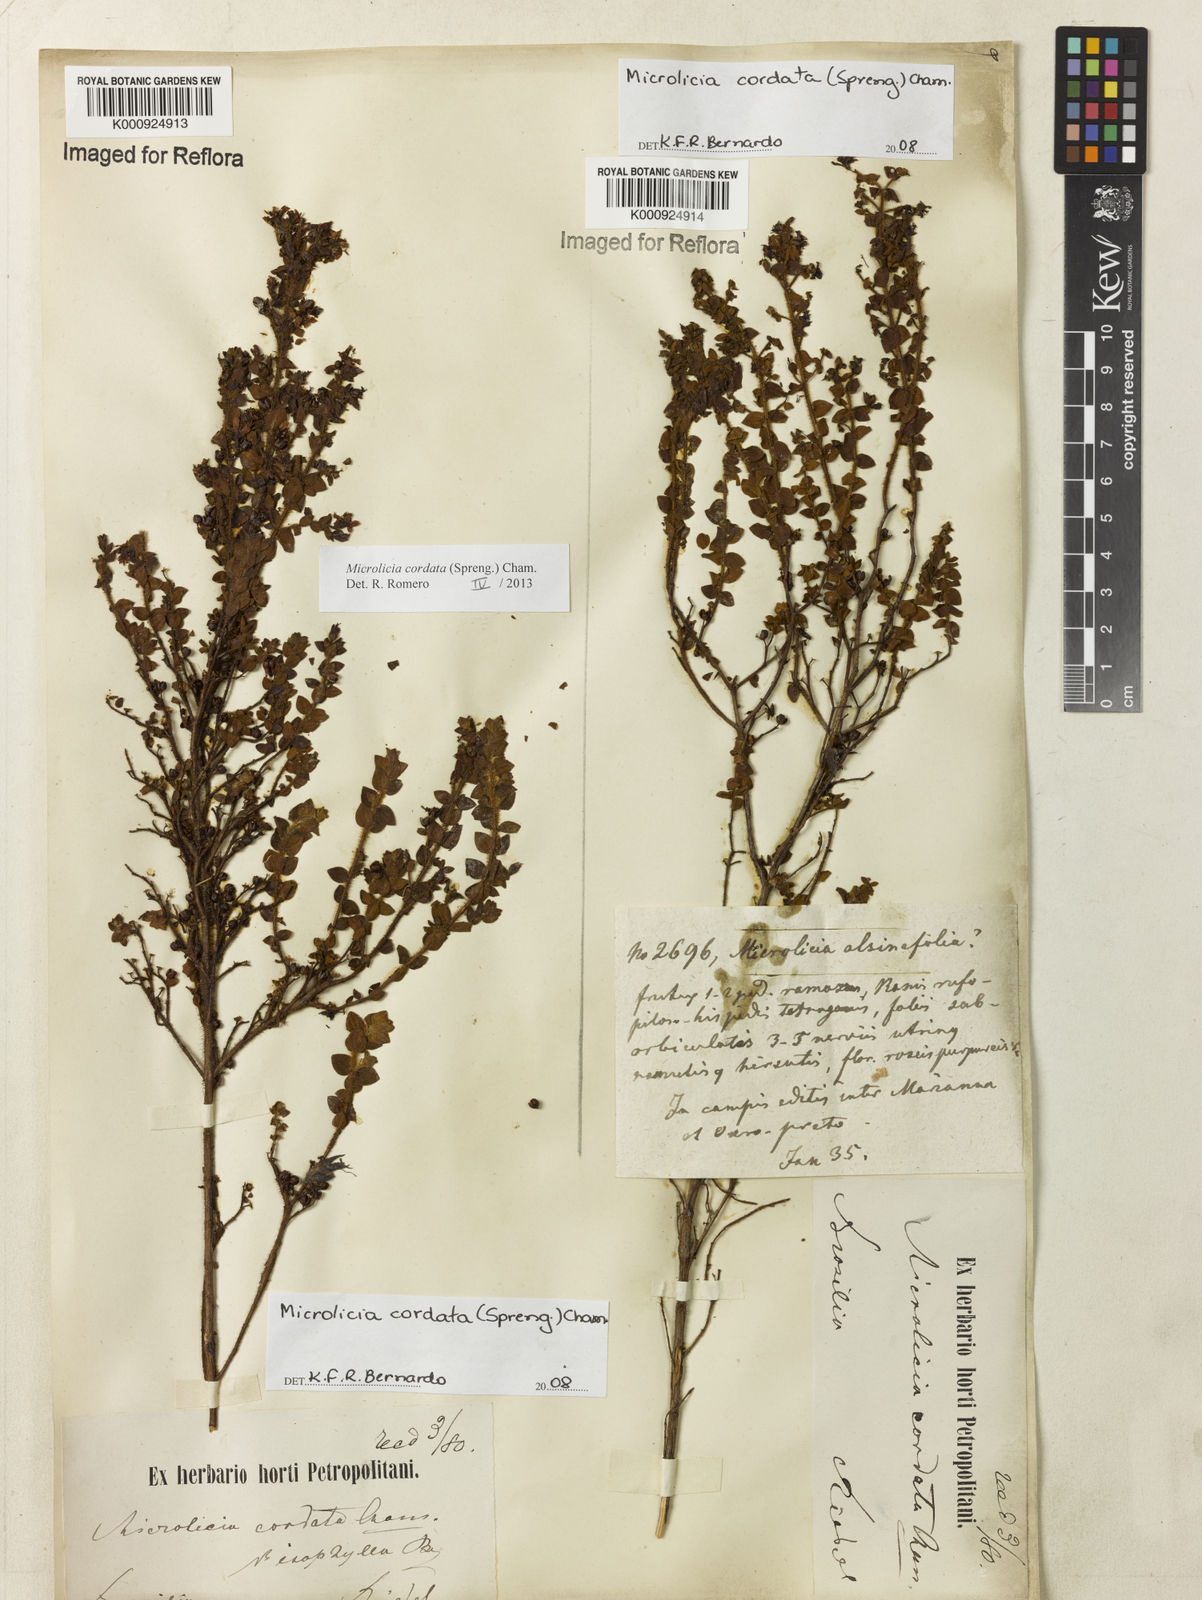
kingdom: Plantae
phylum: Tracheophyta
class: Magnoliopsida
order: Myrtales
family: Melastomataceae
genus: Microlicia
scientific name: Microlicia cordata
